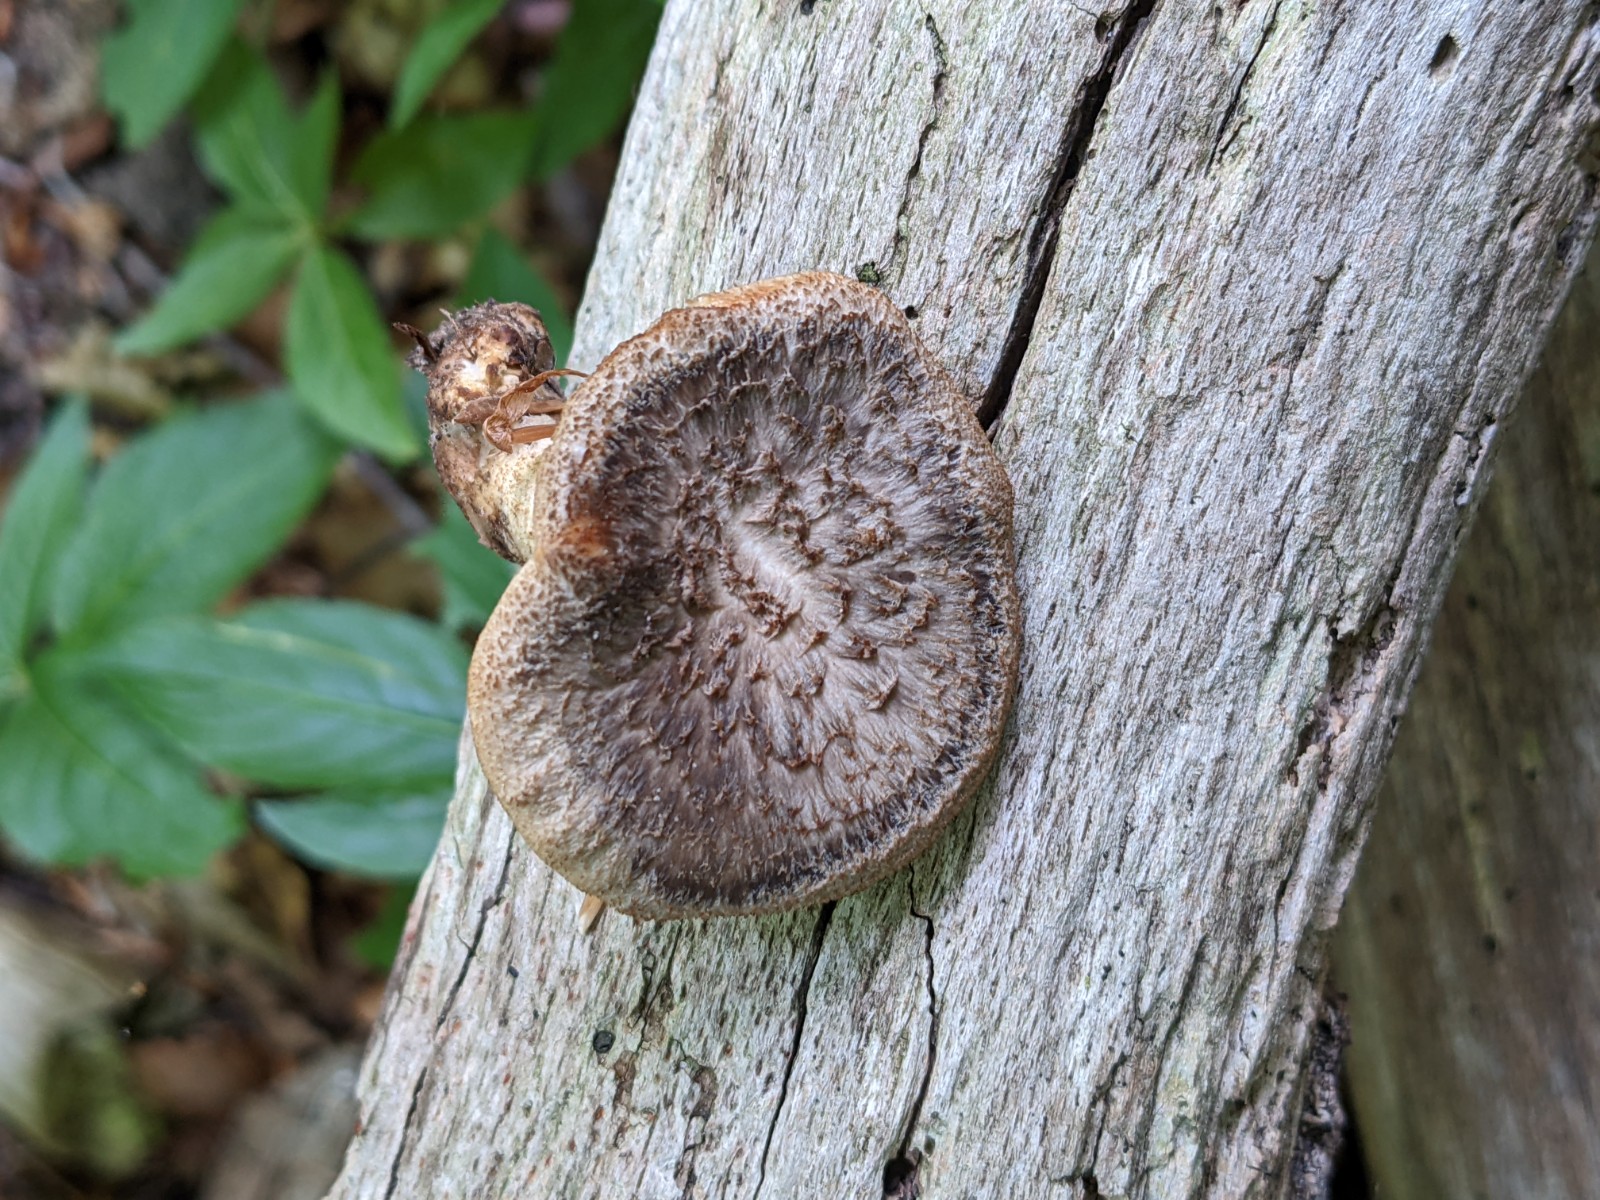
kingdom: Fungi
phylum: Basidiomycota
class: Agaricomycetes
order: Polyporales
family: Polyporaceae
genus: Polyporus
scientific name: Polyporus tuberaster
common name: knoldet stilkporesvamp
